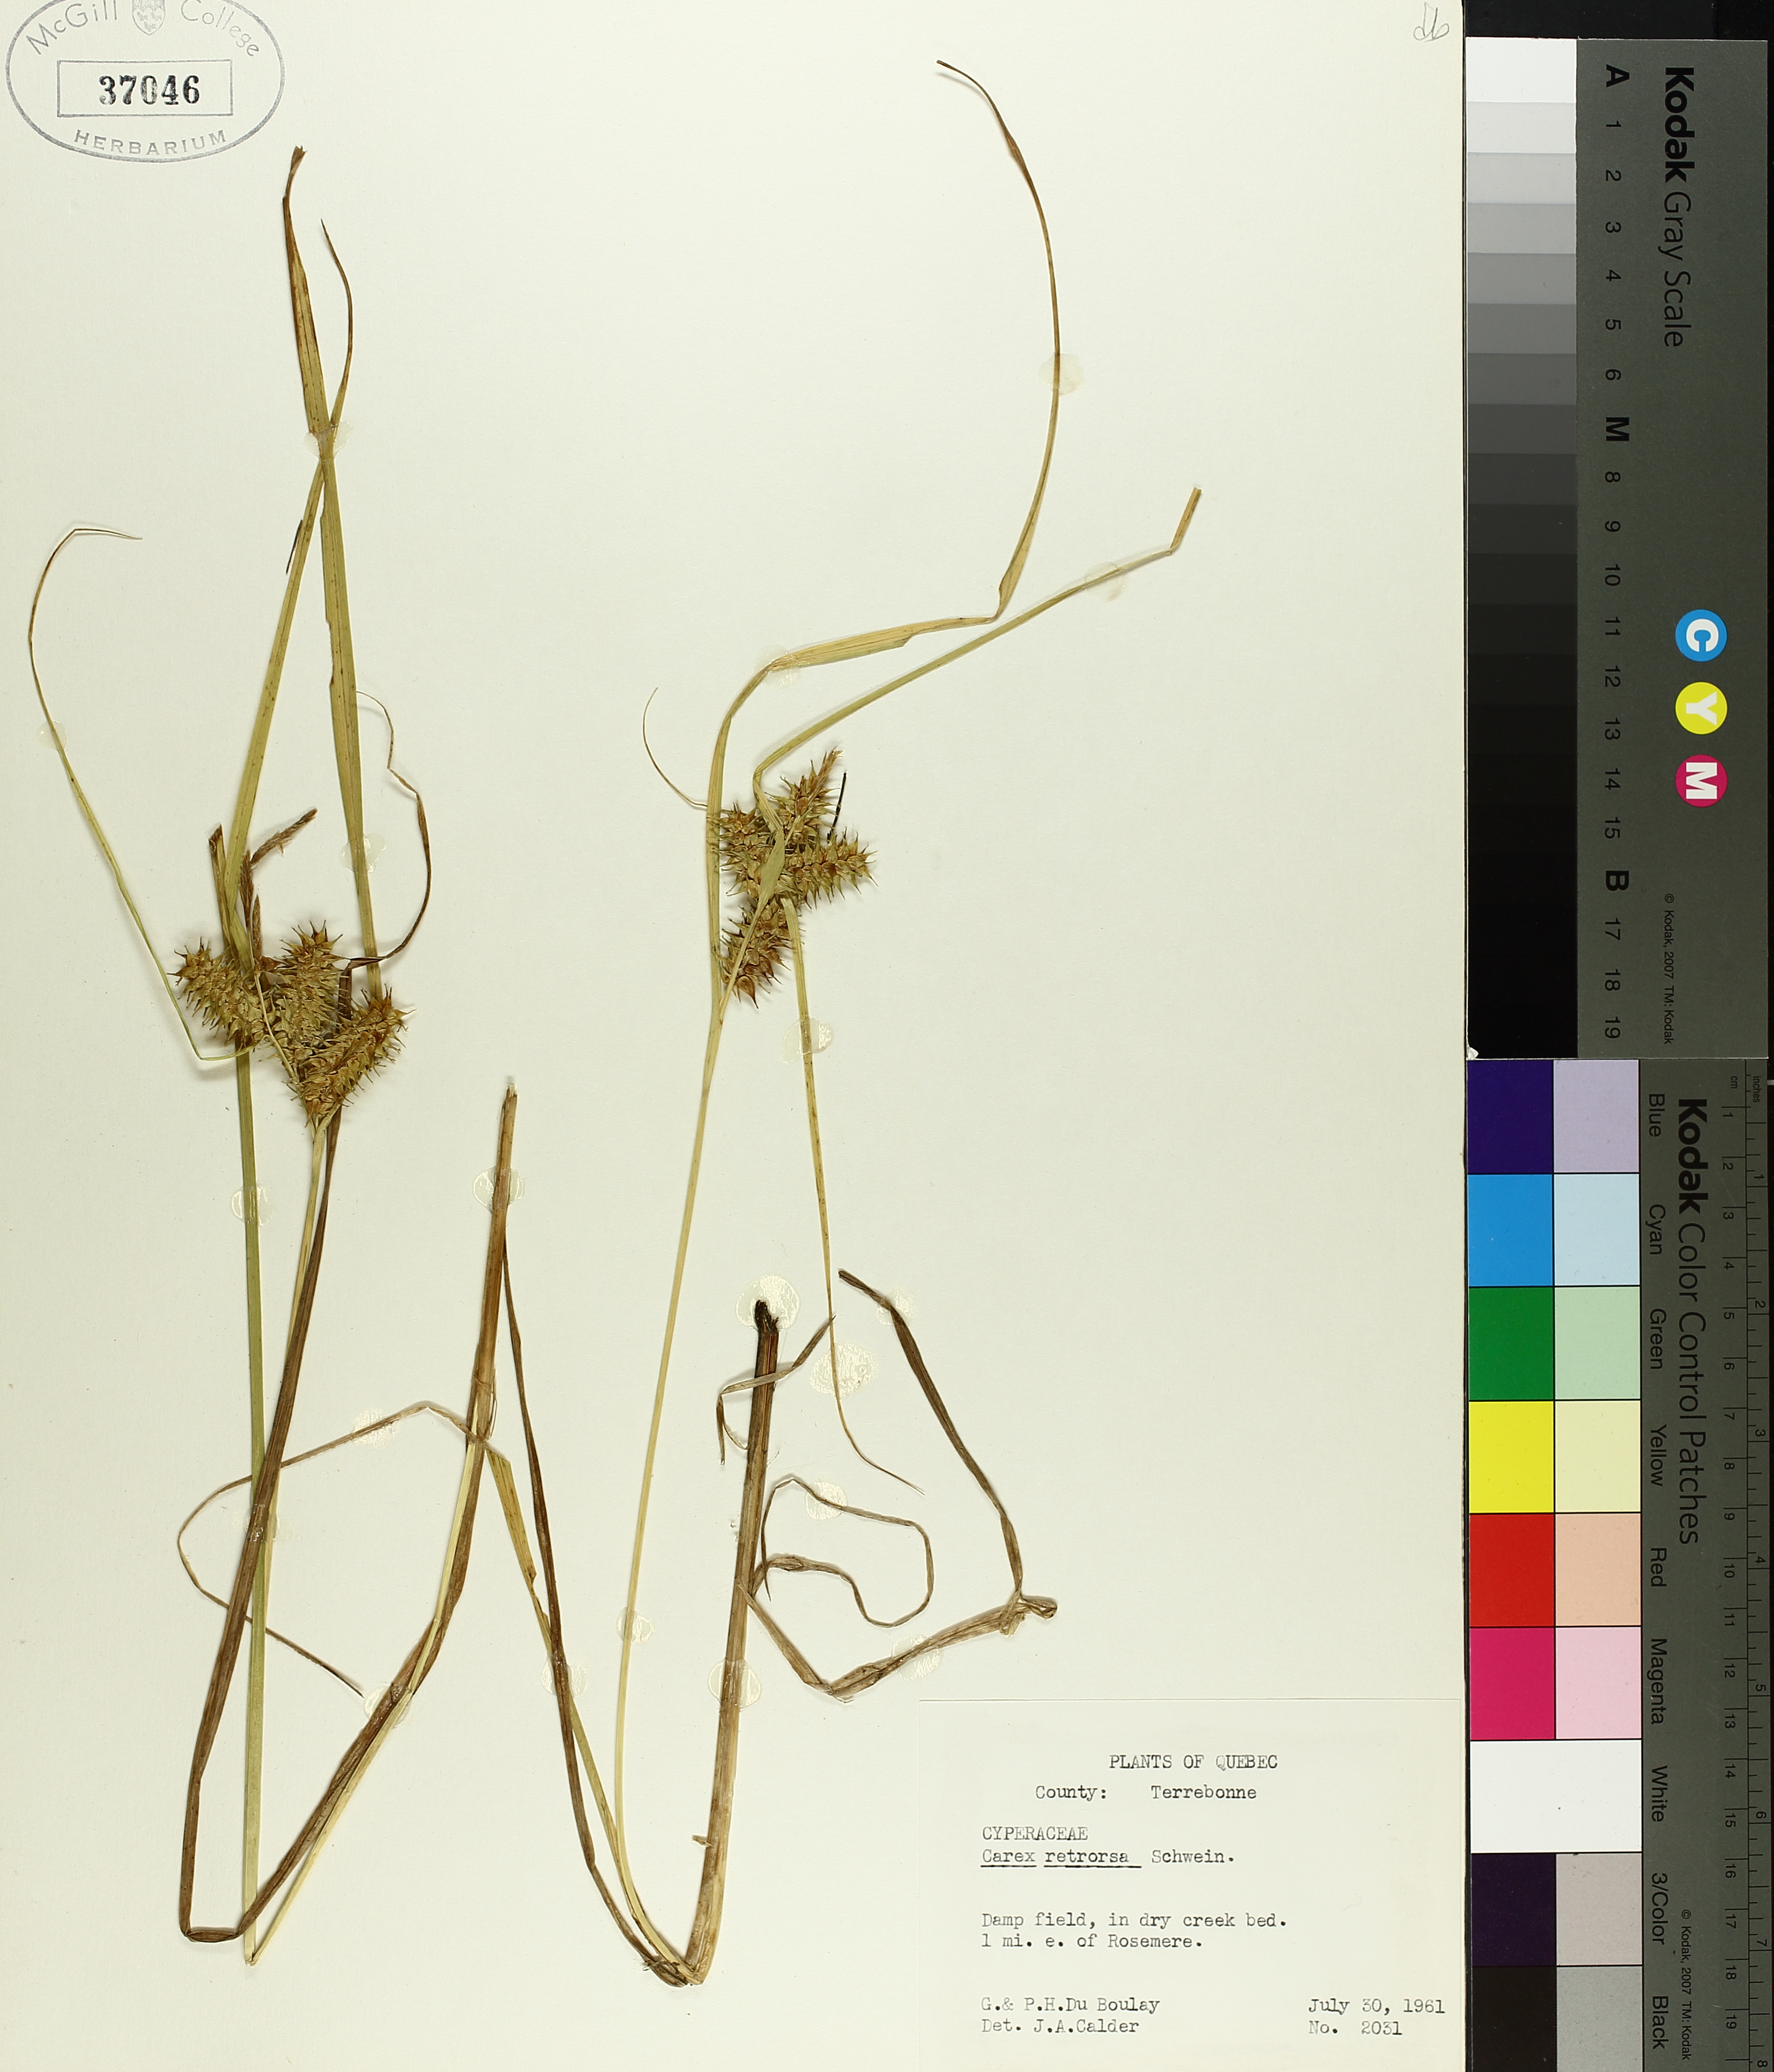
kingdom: Plantae
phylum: Tracheophyta
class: Liliopsida
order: Poales
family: Cyperaceae
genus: Carex
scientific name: Carex retrorsa
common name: Knot-sheath sedge
